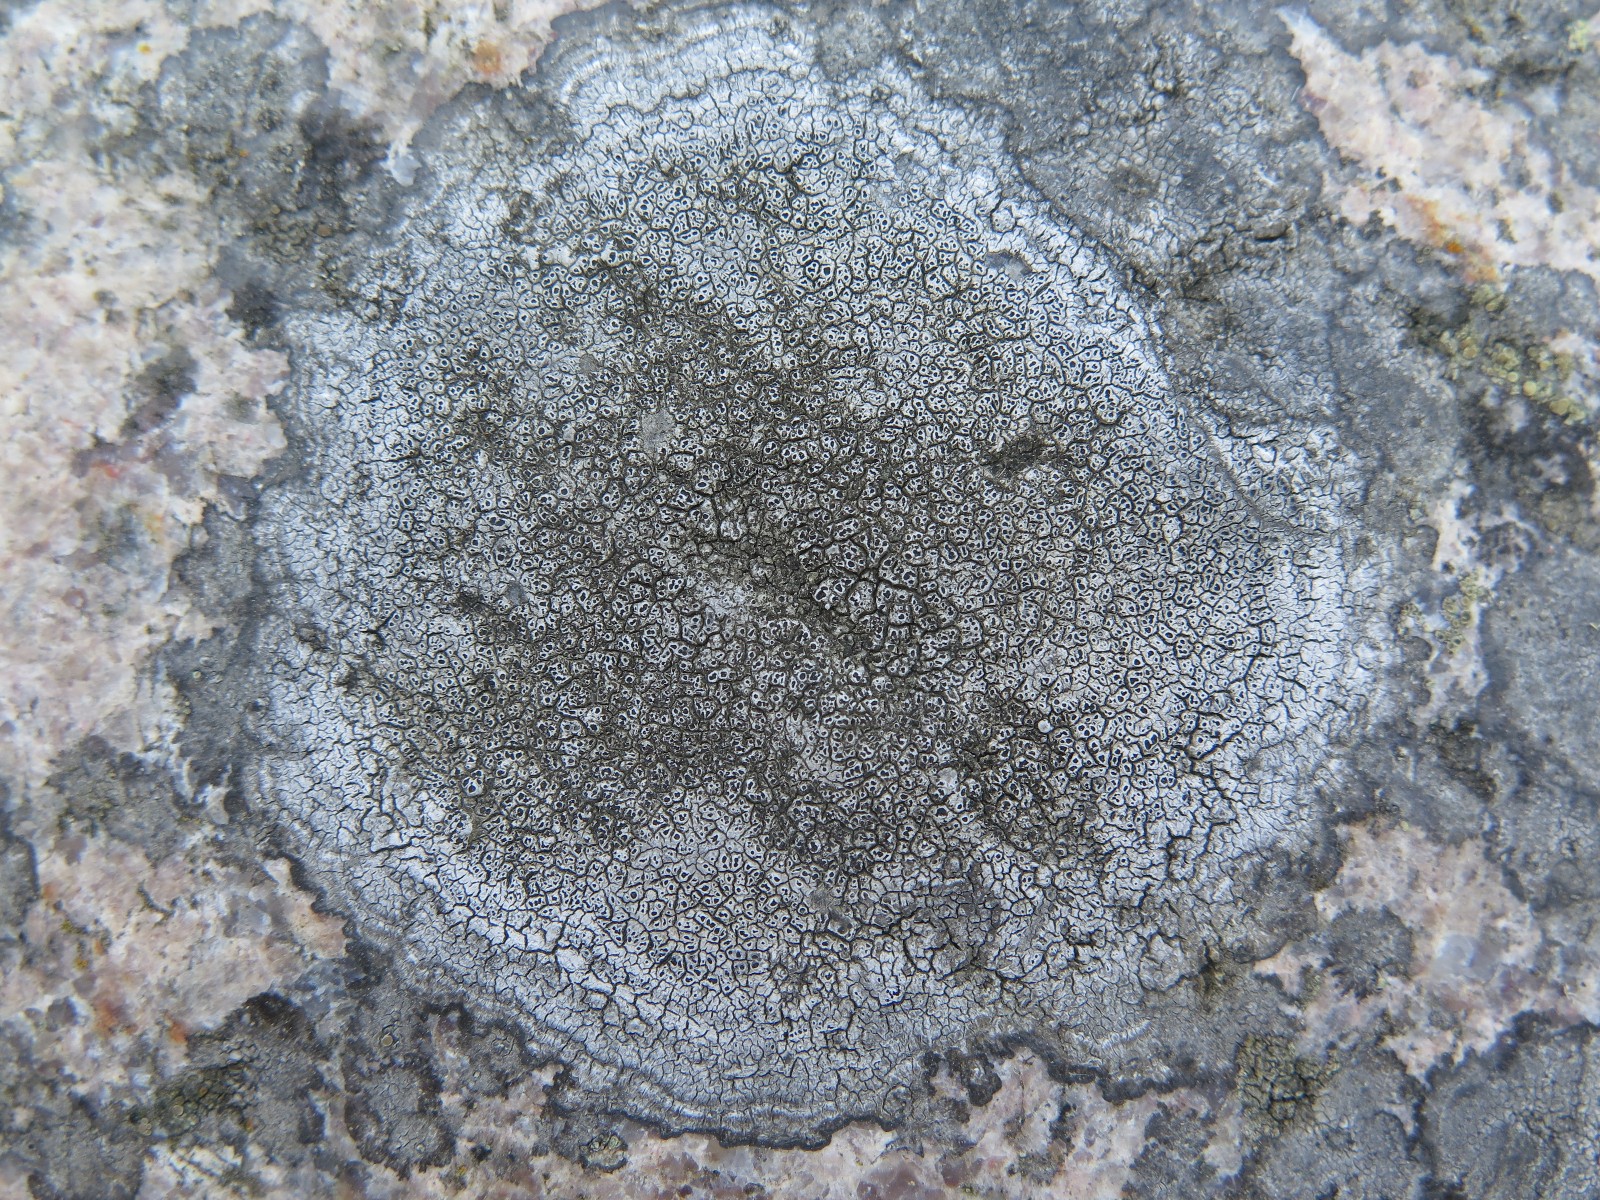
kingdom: Fungi
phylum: Ascomycota
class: Lecanoromycetes
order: Pertusariales
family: Megasporaceae
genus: Circinaria
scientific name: Circinaria caesiocinerea
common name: fuglestens-hulskivelav
